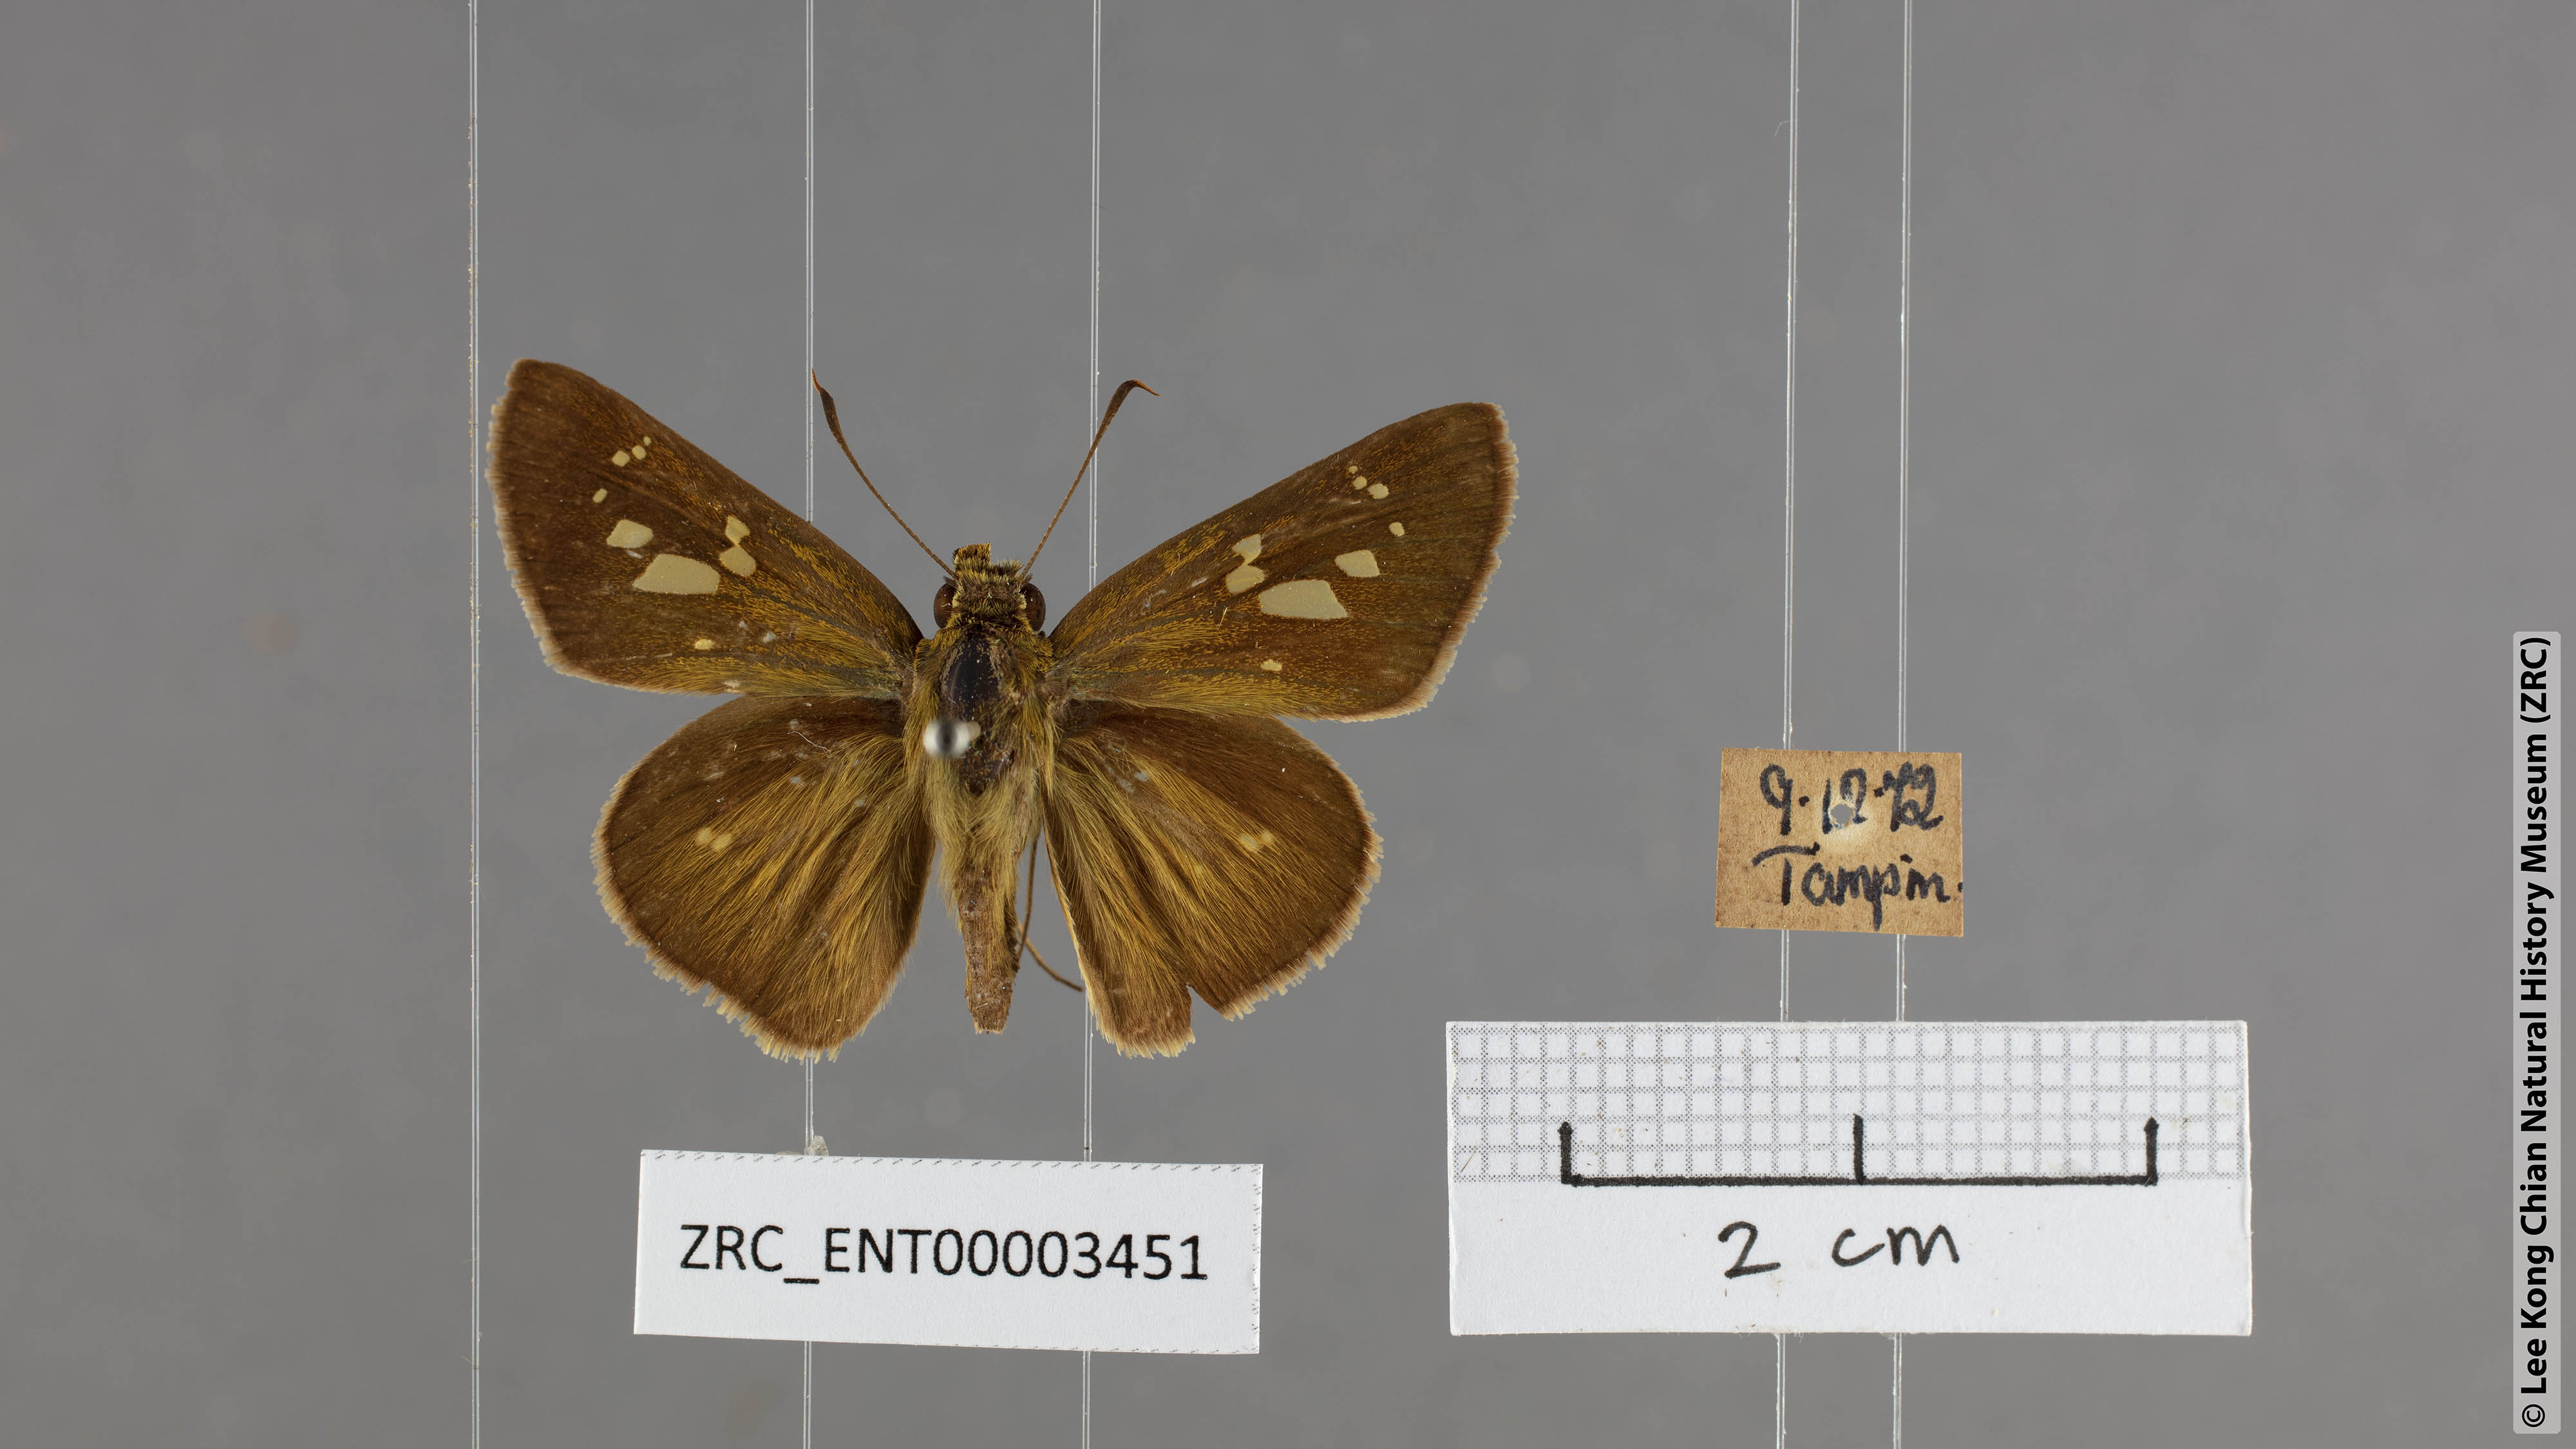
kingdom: Animalia
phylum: Arthropoda
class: Insecta
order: Lepidoptera
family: Hesperiidae
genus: Polytremis
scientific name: Polytremis lubricans
